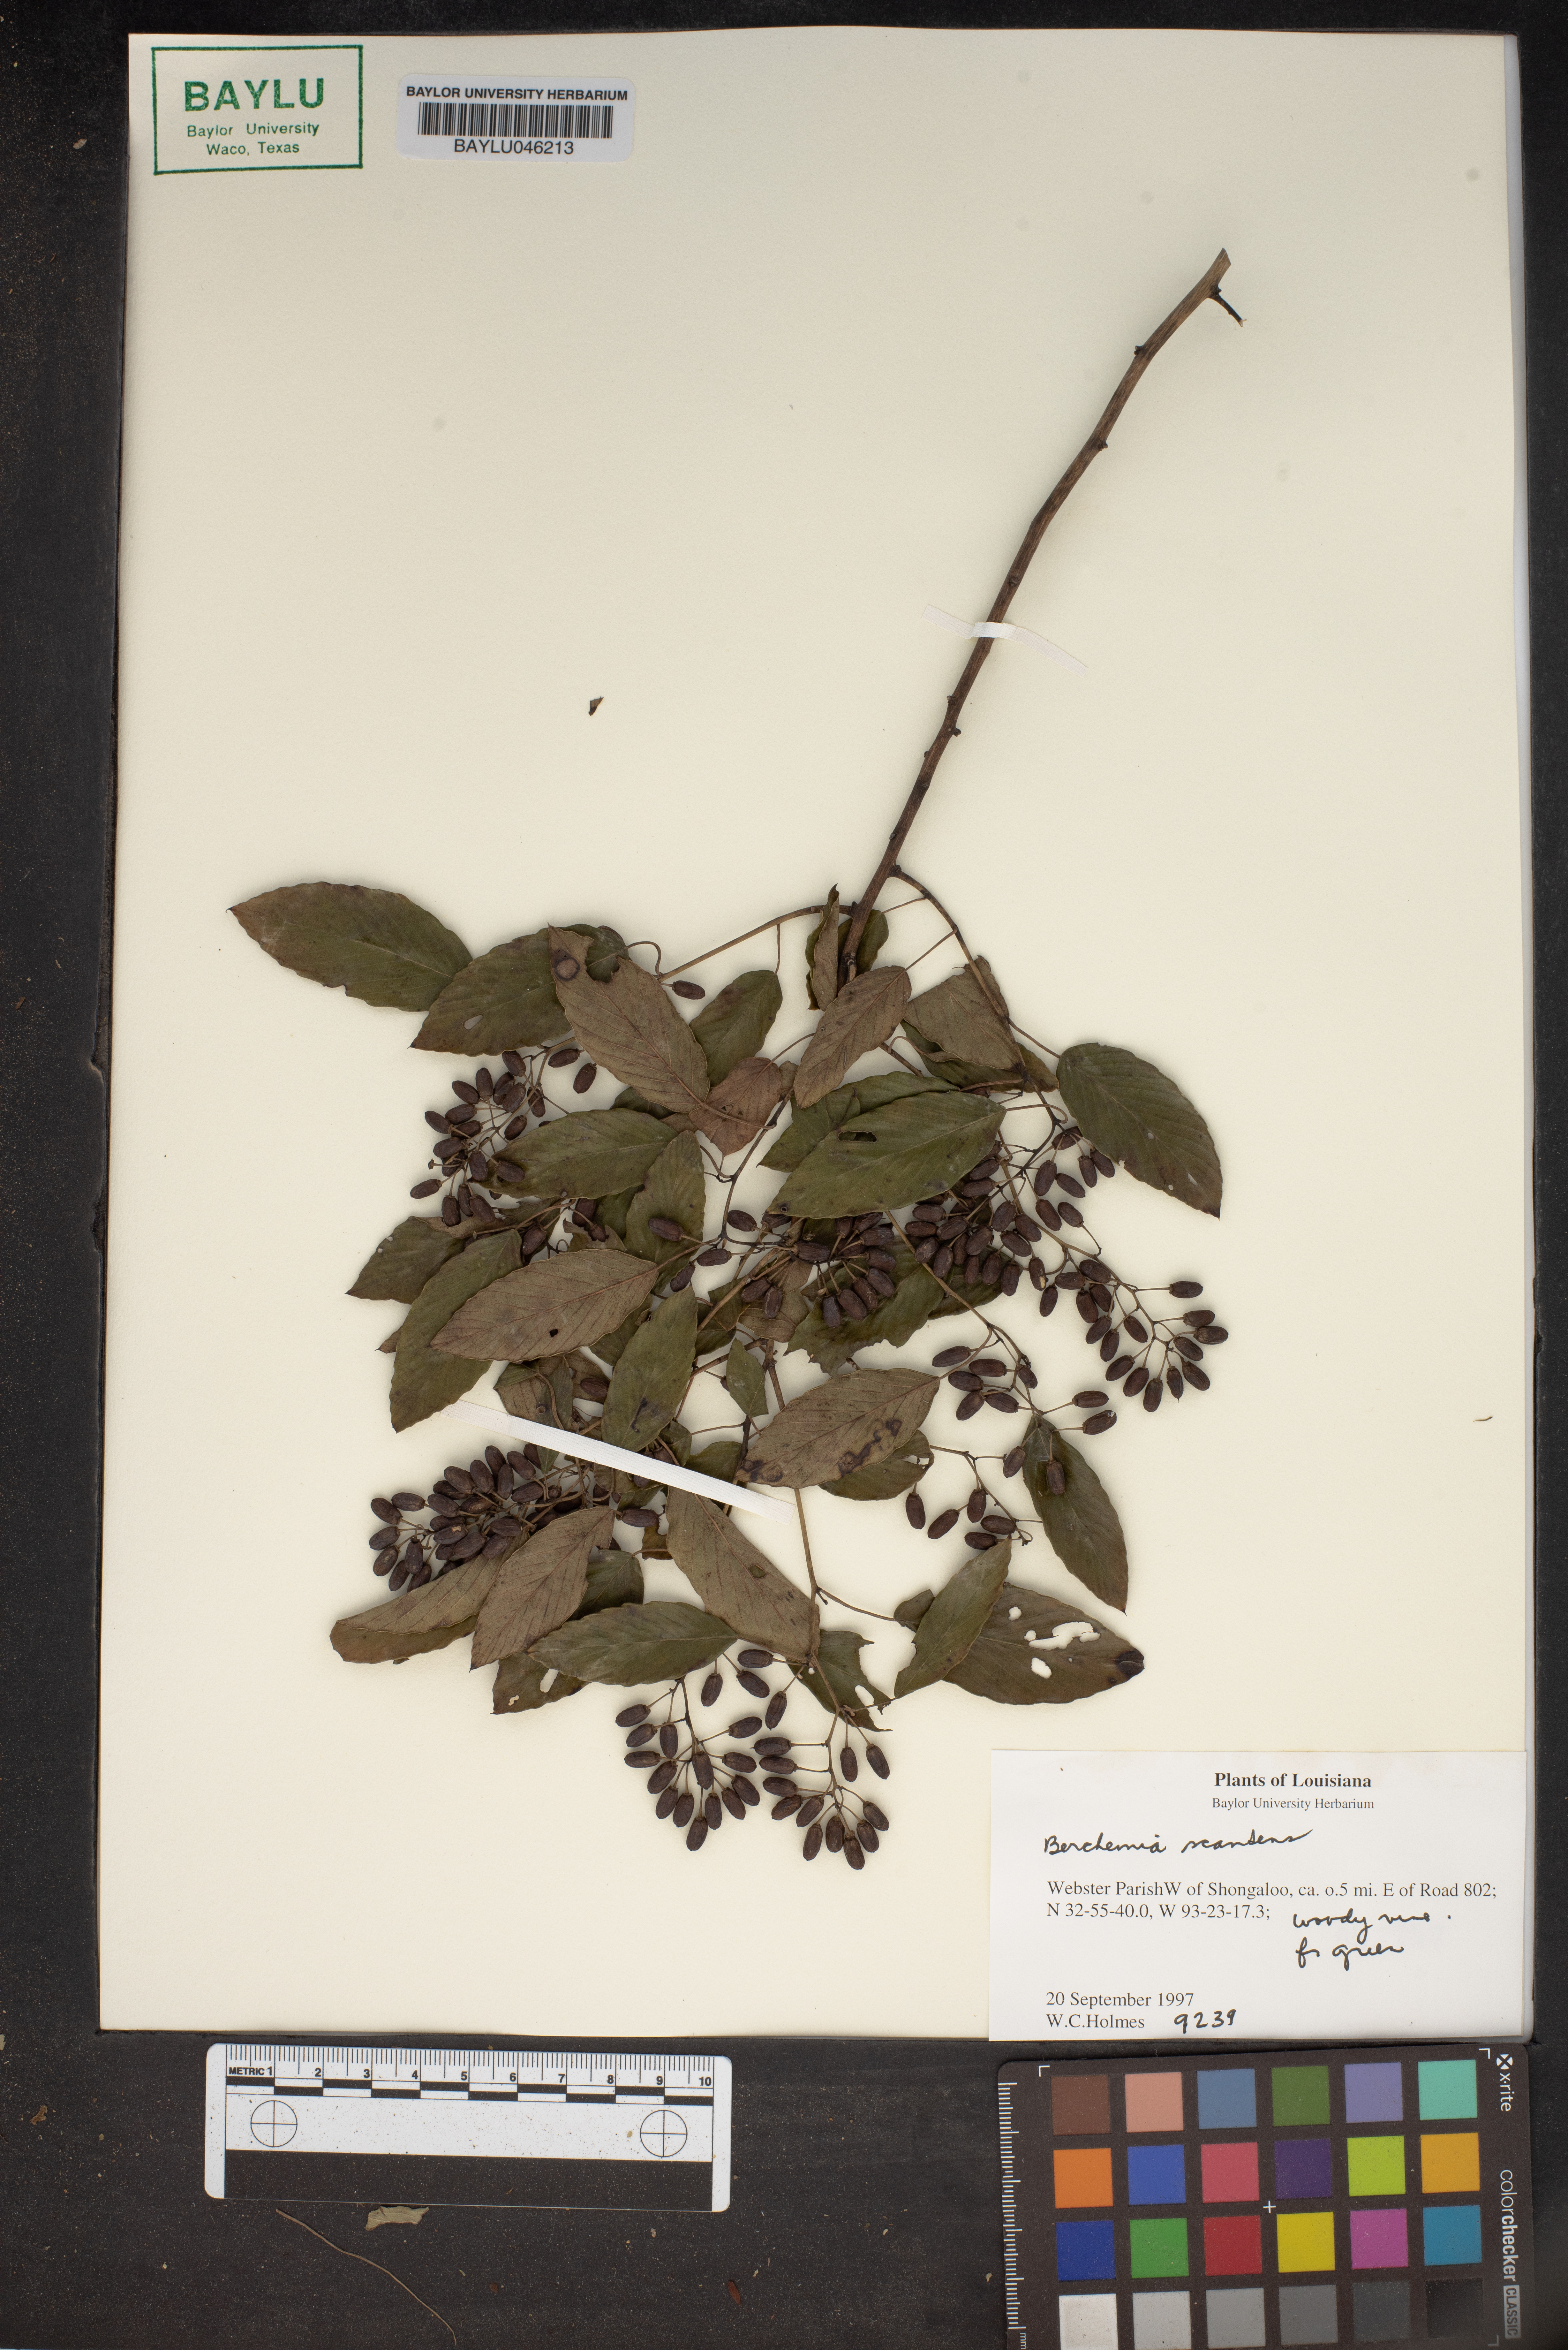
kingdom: Plantae
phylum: Tracheophyta
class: Magnoliopsida
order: Rosales
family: Rhamnaceae
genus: Berchemia
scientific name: Berchemia scandens
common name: Supplejack
